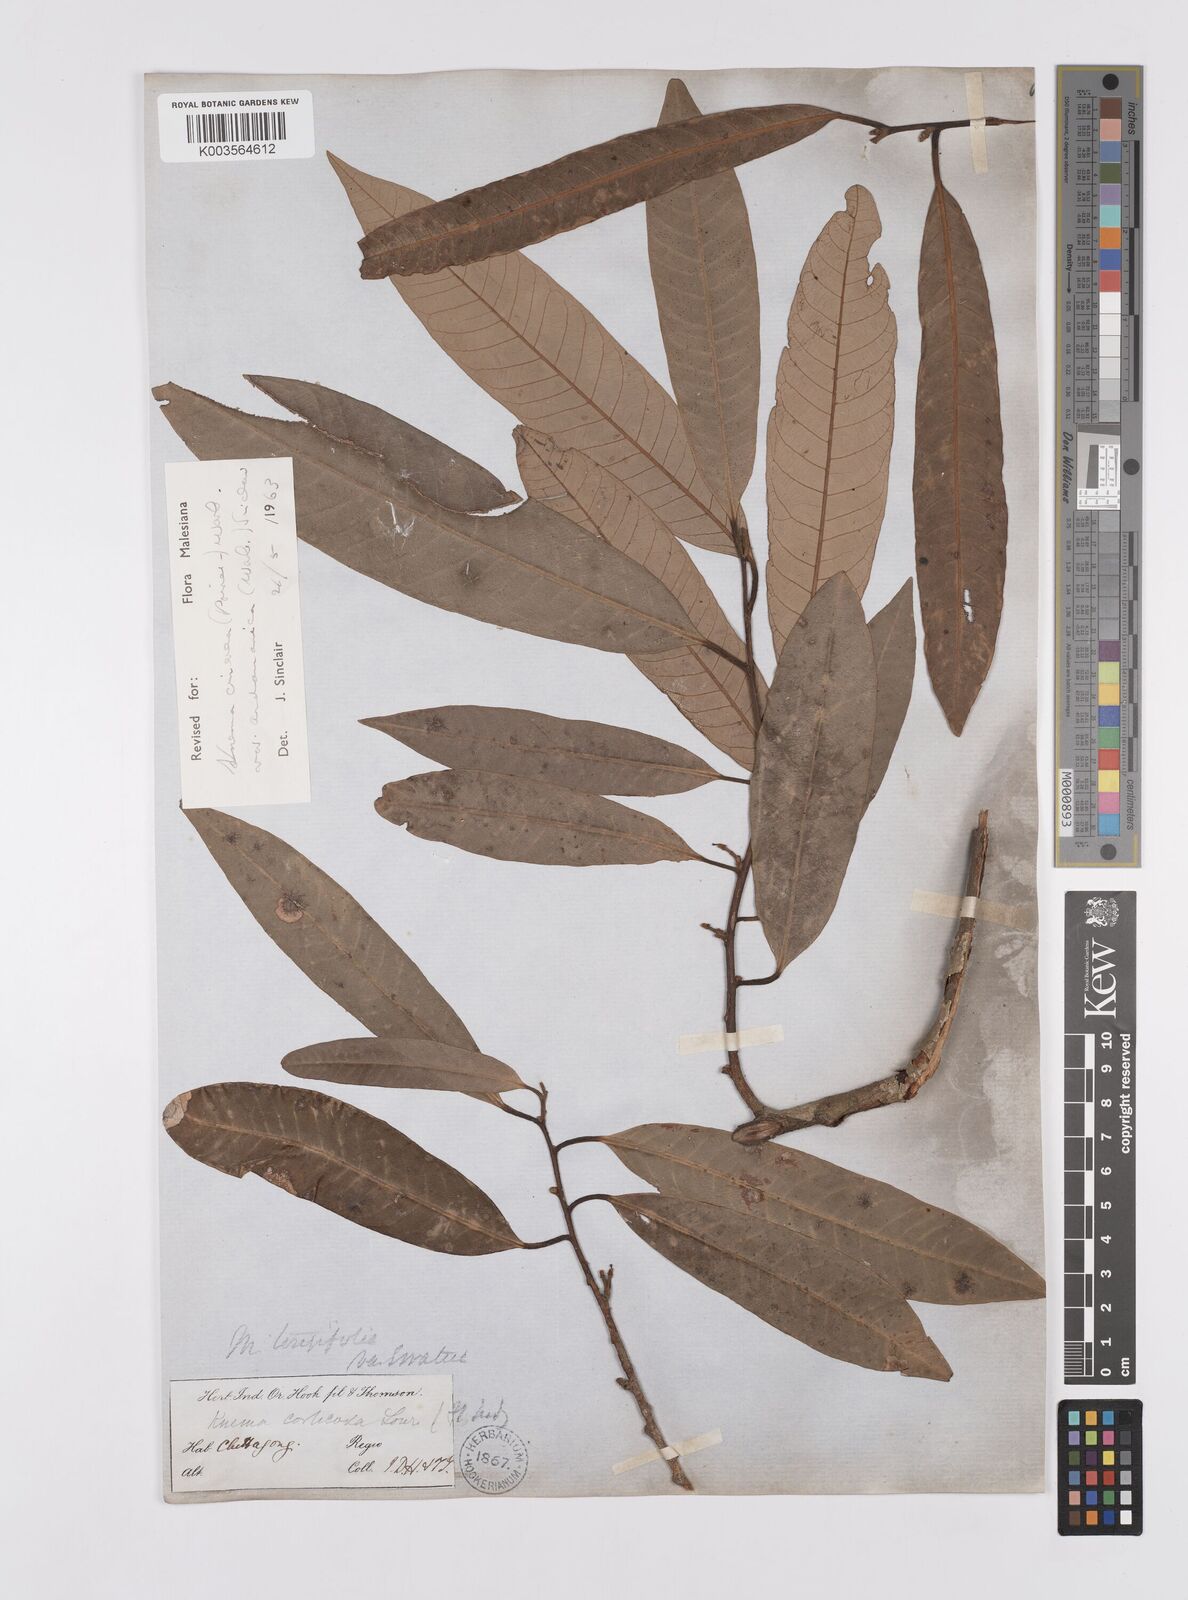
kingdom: Plantae
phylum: Tracheophyta
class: Magnoliopsida
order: Magnoliales
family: Myristicaceae
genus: Knema
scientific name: Knema
